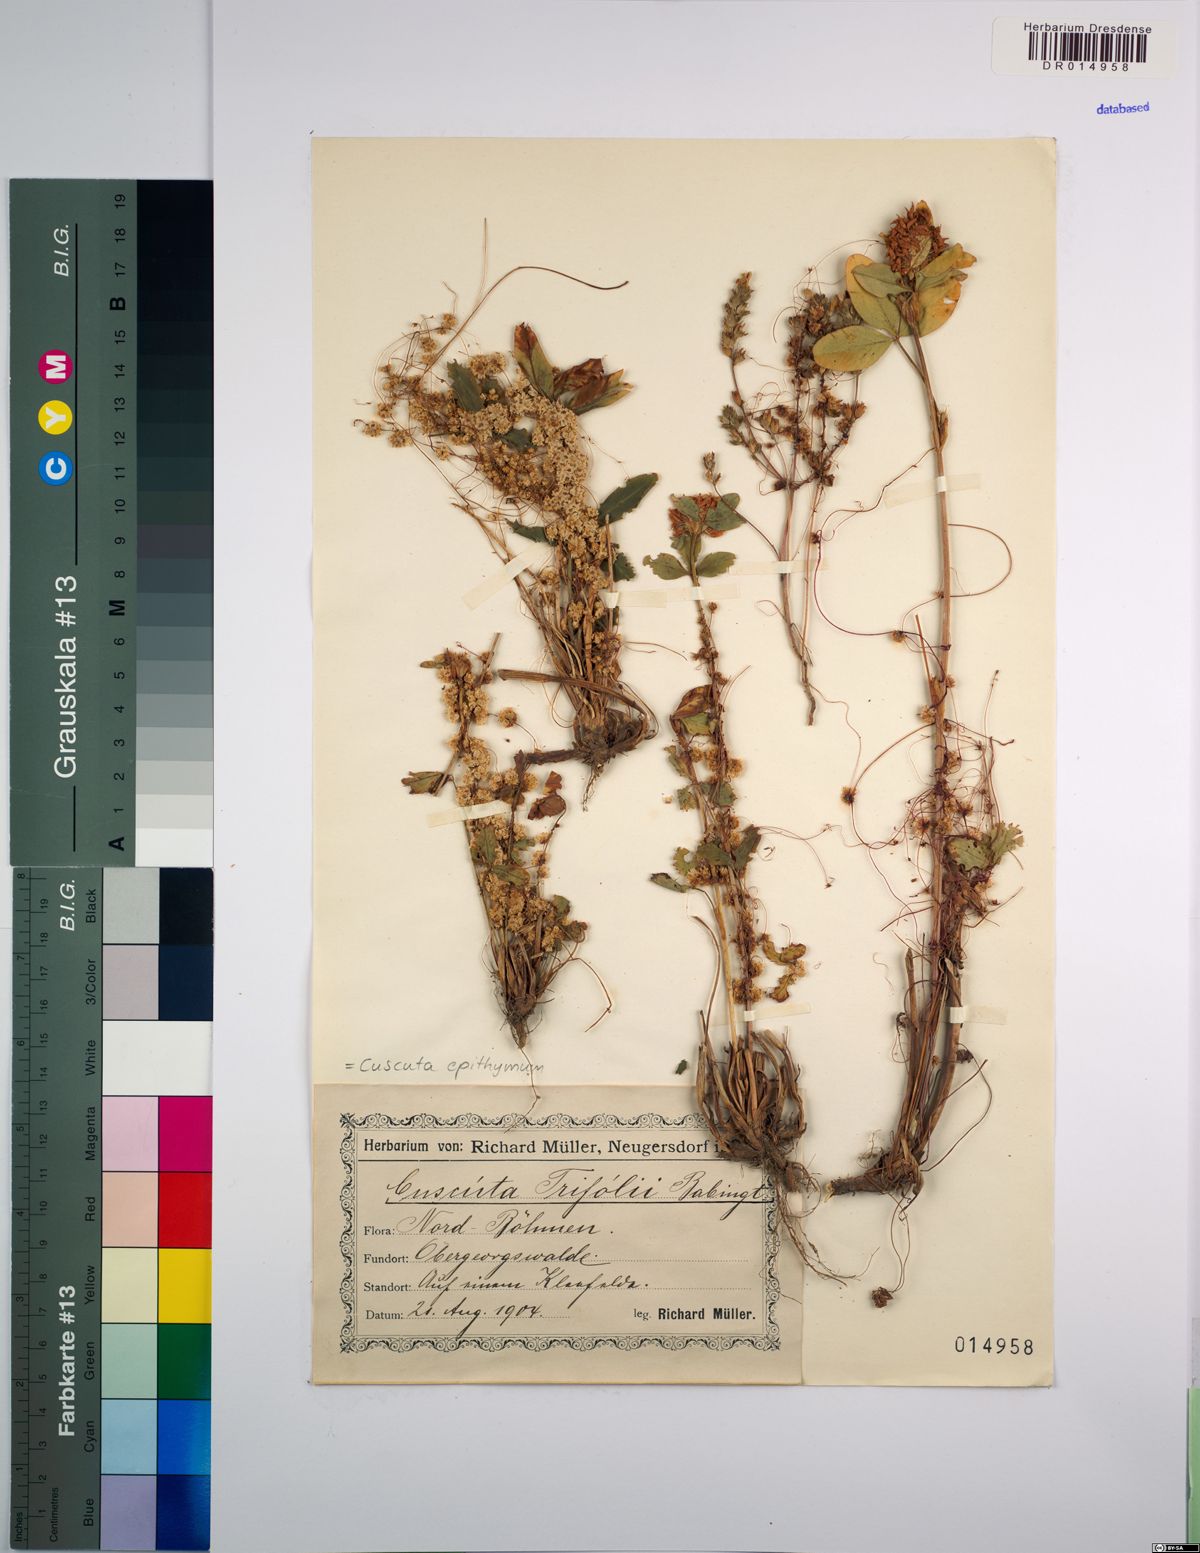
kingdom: Plantae
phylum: Tracheophyta
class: Magnoliopsida
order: Solanales
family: Convolvulaceae
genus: Cuscuta
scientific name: Cuscuta epithymum
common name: Clover dodder
